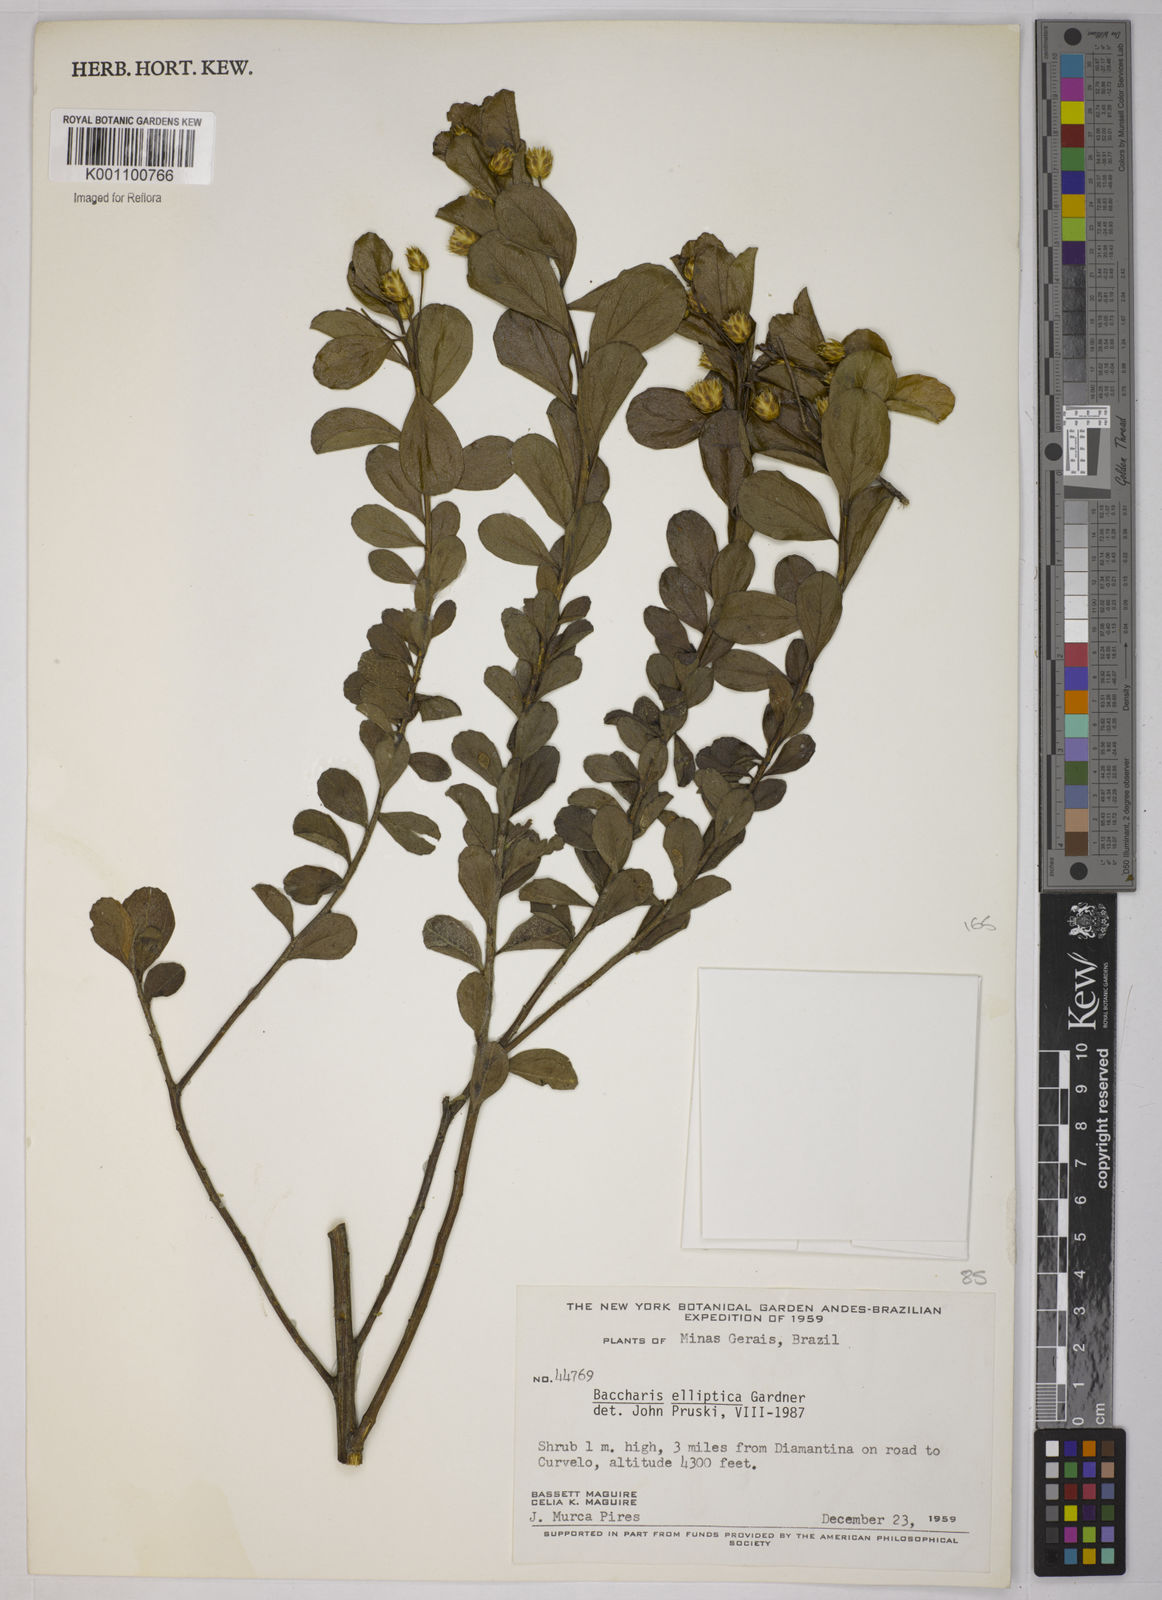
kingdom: Plantae
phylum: Tracheophyta
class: Magnoliopsida
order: Asterales
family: Asteraceae
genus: Baccharis
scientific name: Baccharis elliptica
